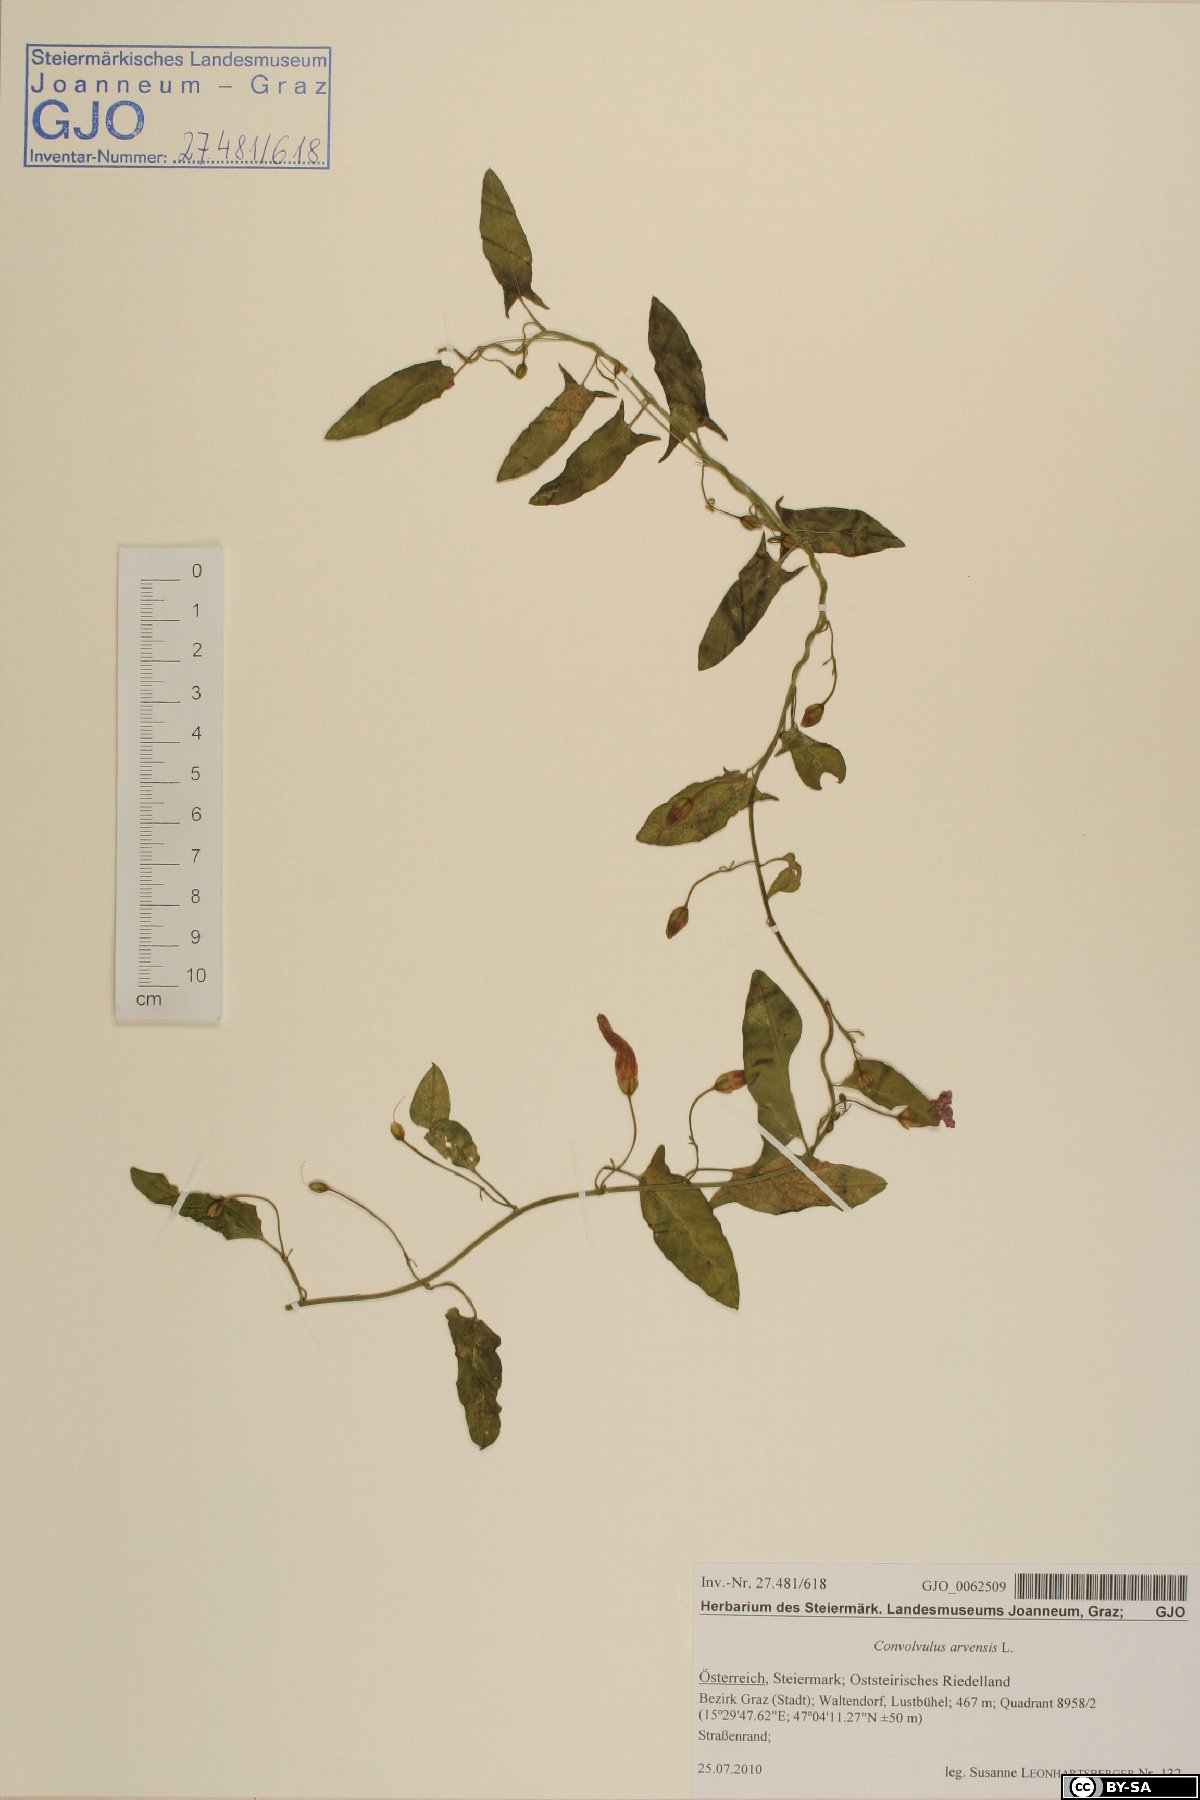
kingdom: Plantae
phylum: Tracheophyta
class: Magnoliopsida
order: Solanales
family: Convolvulaceae
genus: Convolvulus
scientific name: Convolvulus arvensis
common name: Field bindweed
